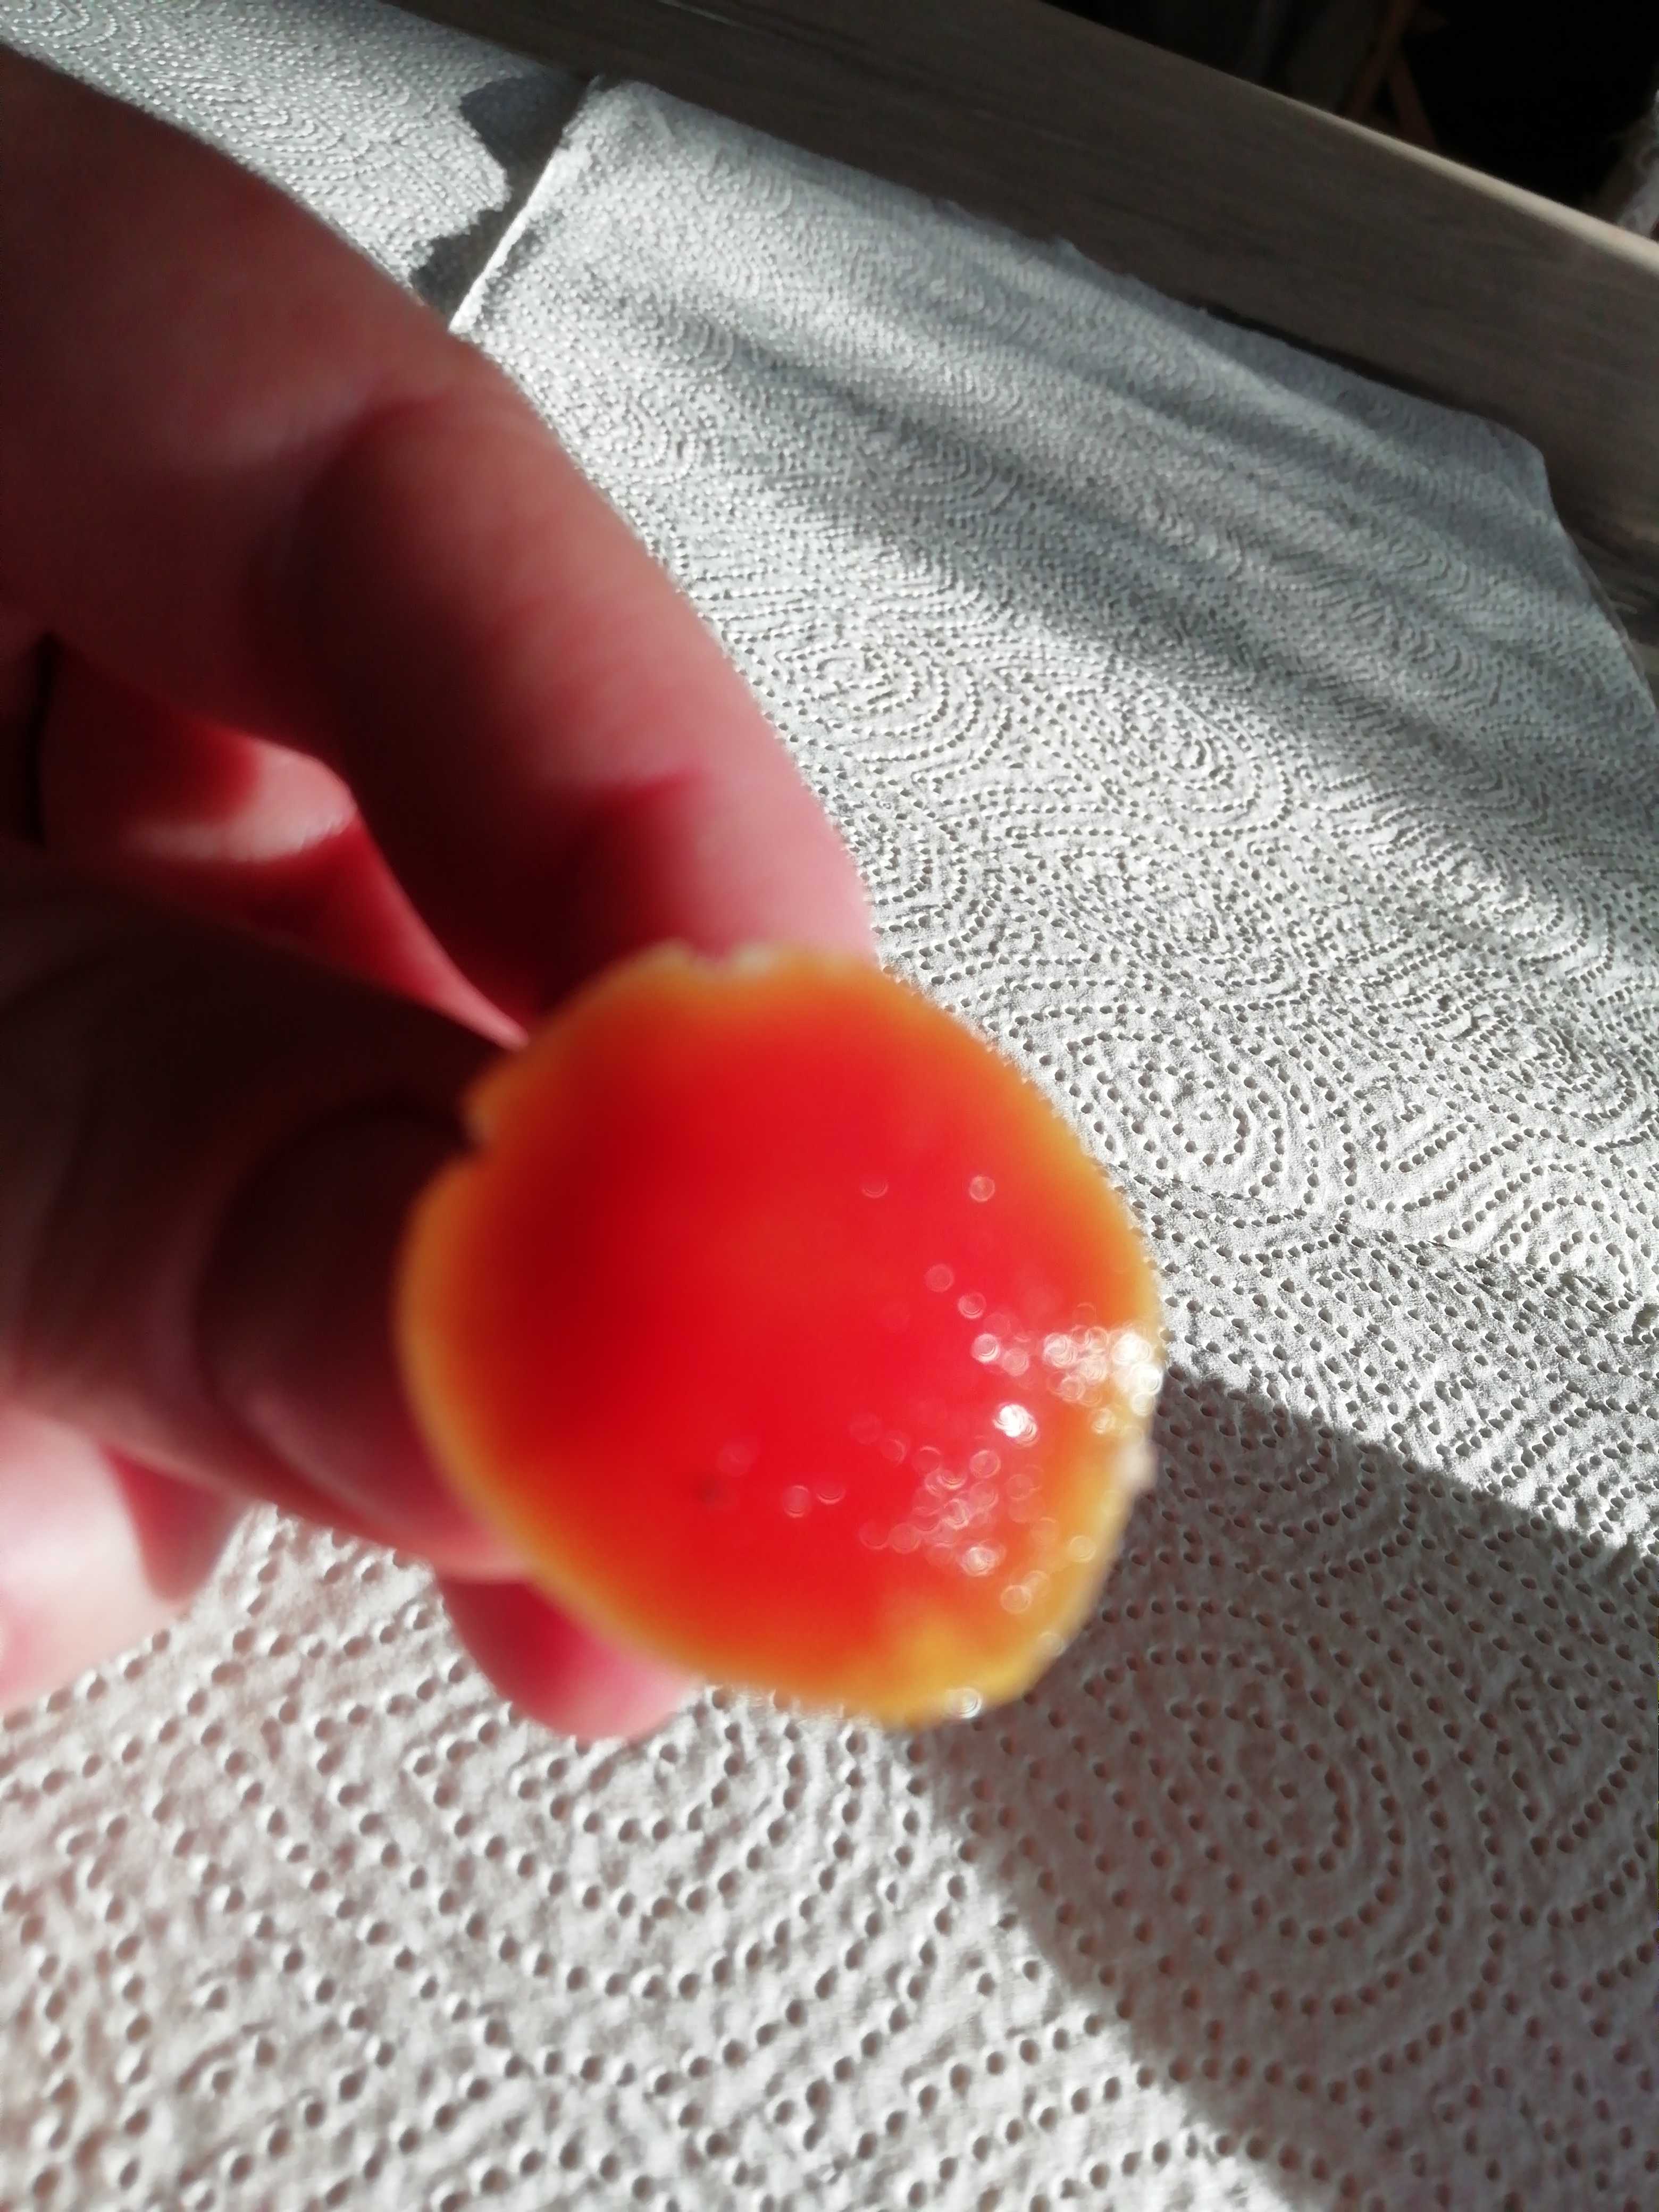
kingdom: Fungi
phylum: Basidiomycota
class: Agaricomycetes
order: Agaricales
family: Hygrophoraceae
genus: Hygrocybe
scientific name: Hygrocybe
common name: vokshat
